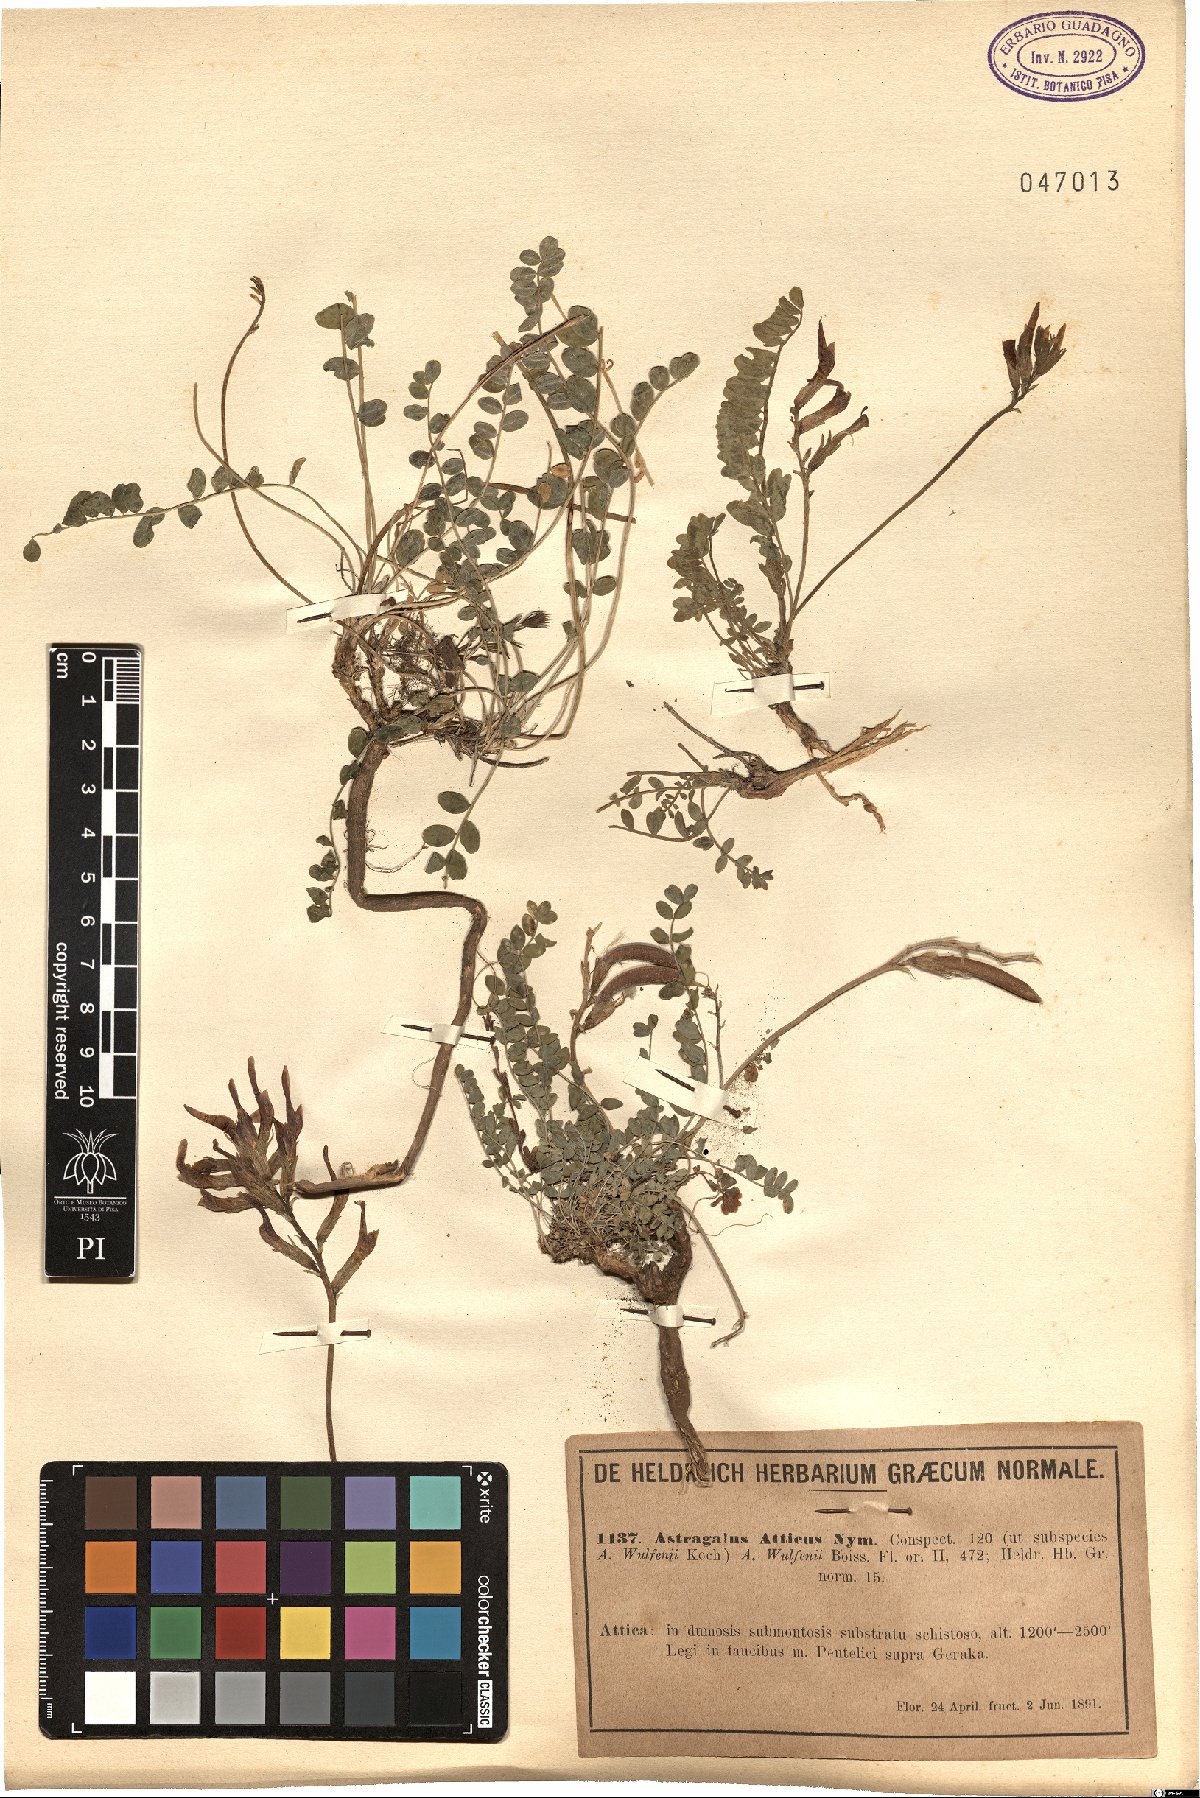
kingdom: Plantae
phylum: Tracheophyta
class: Magnoliopsida
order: Fabales
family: Fabaceae
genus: Astragalus
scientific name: Astragalus monspessulanus
